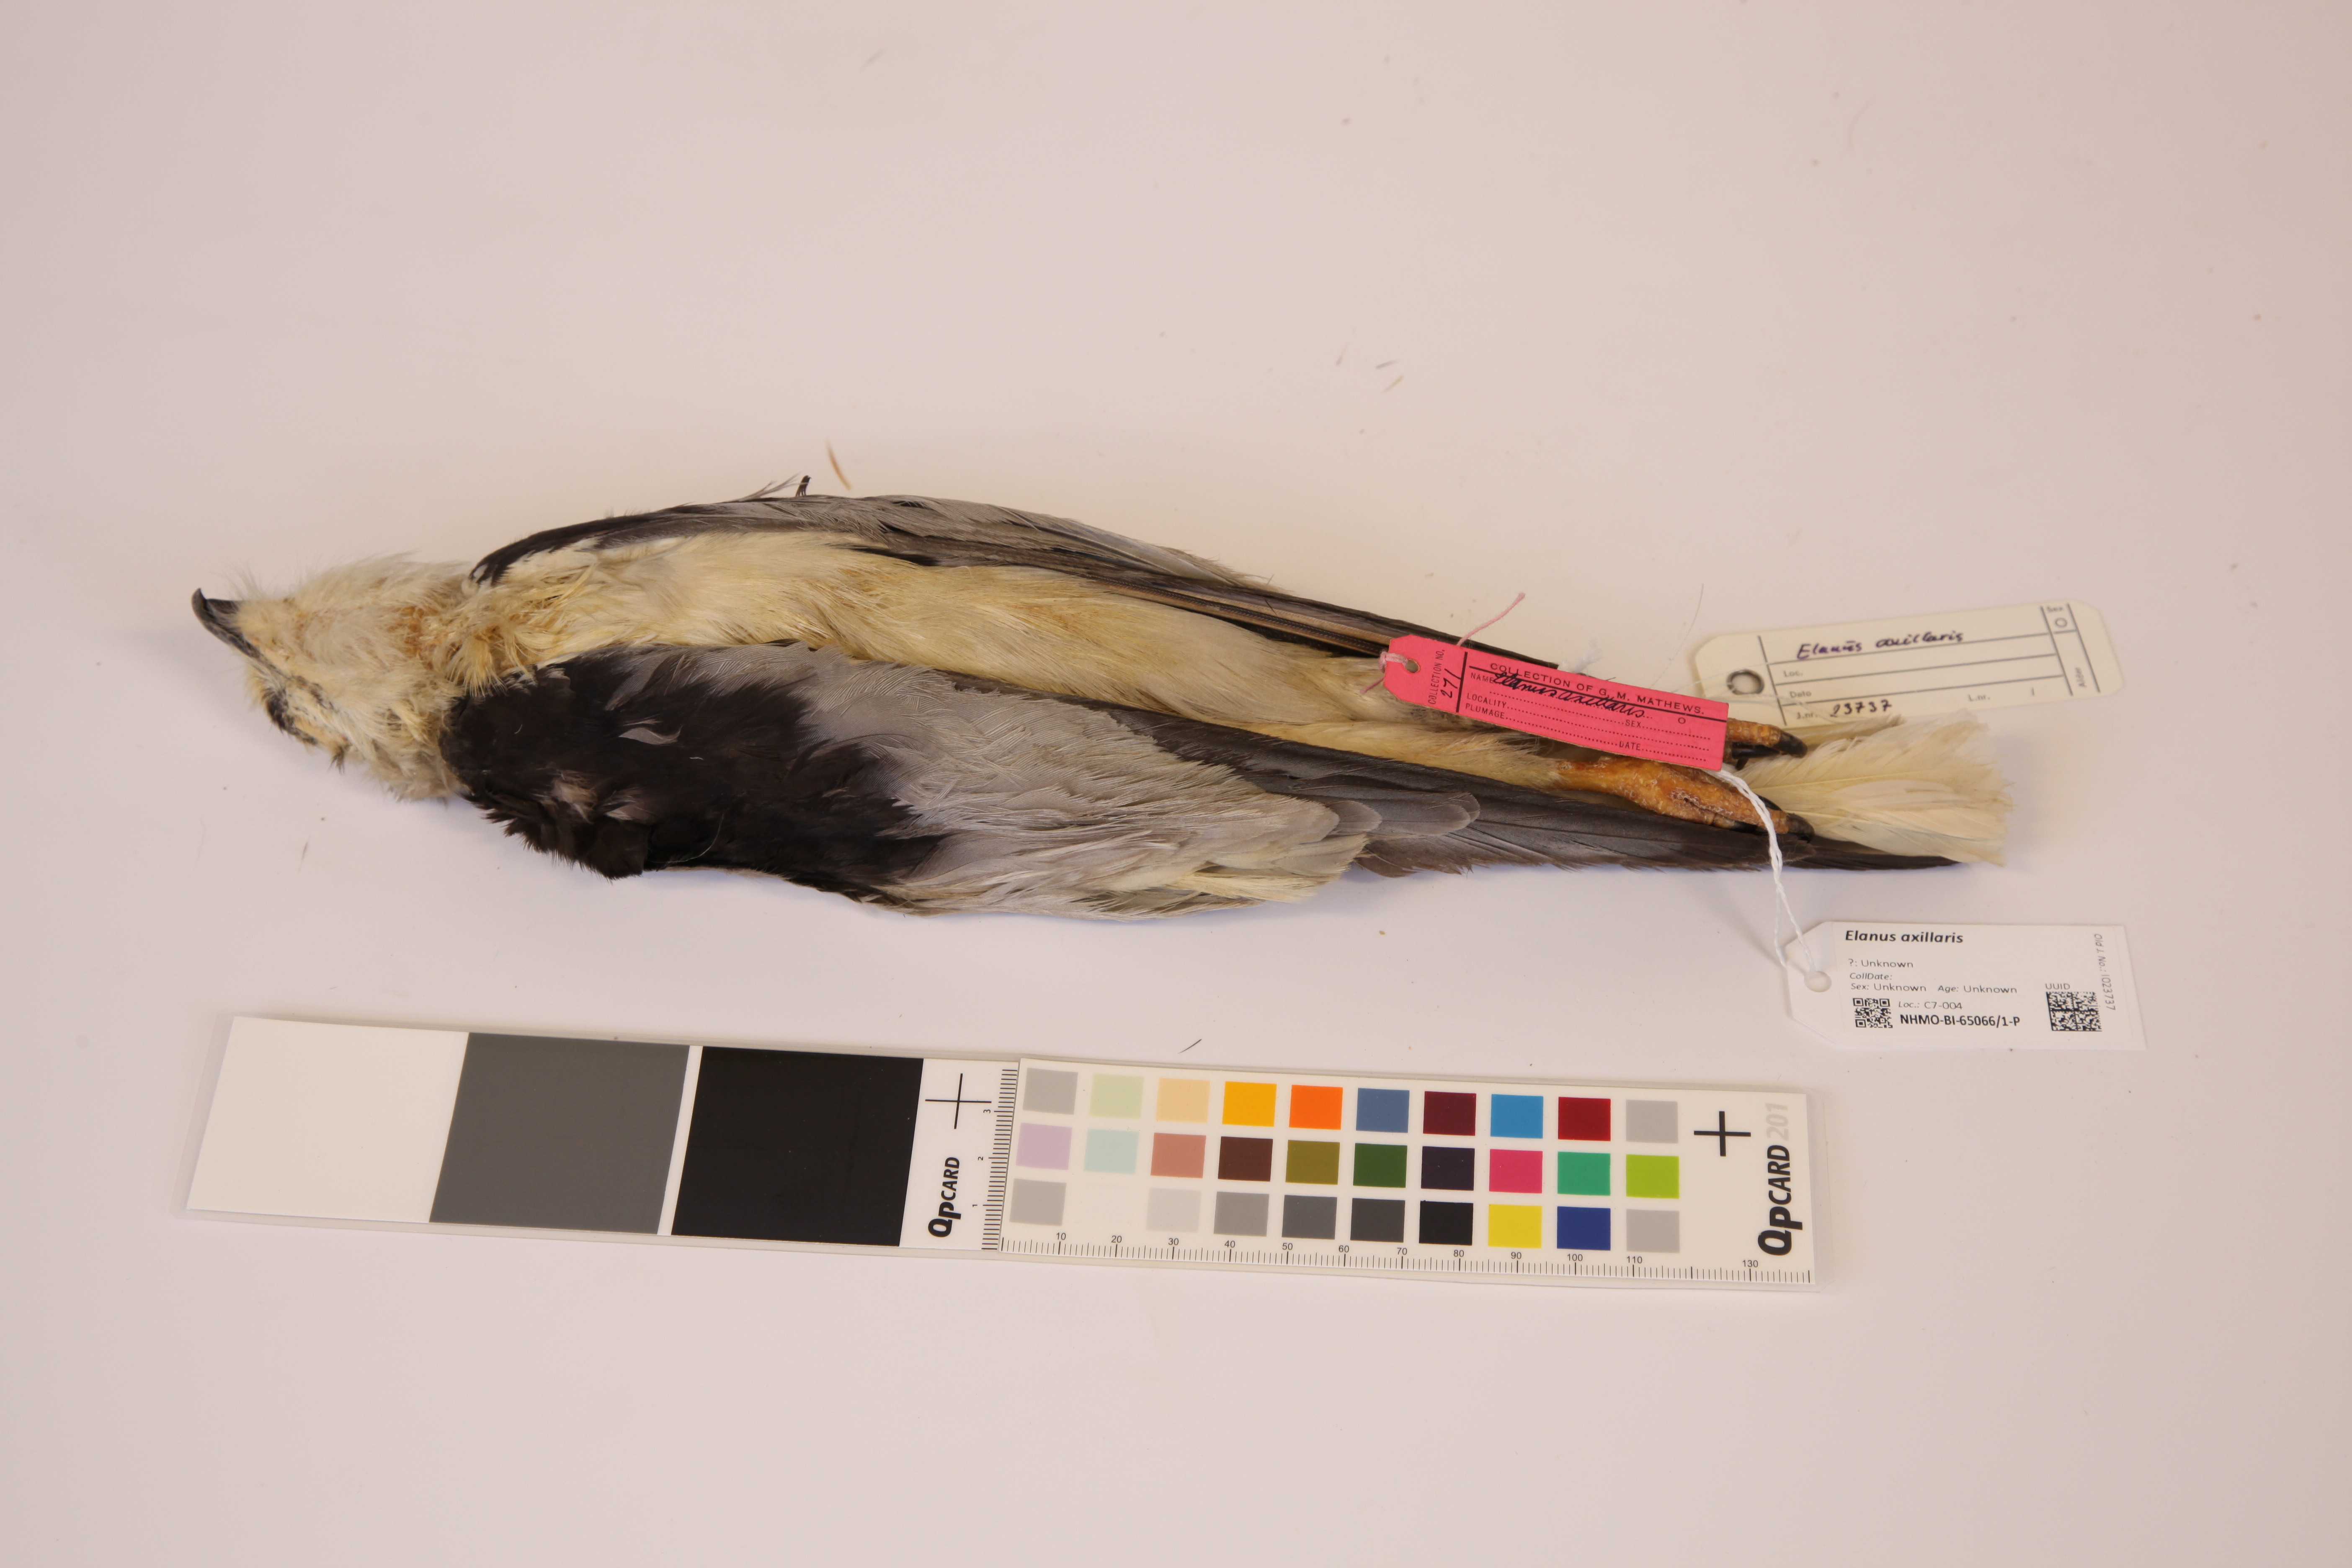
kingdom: Animalia
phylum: Chordata
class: Aves
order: Accipitriformes
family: Accipitridae
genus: Elanus
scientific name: Elanus axillaris
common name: Black-shouldered kite
